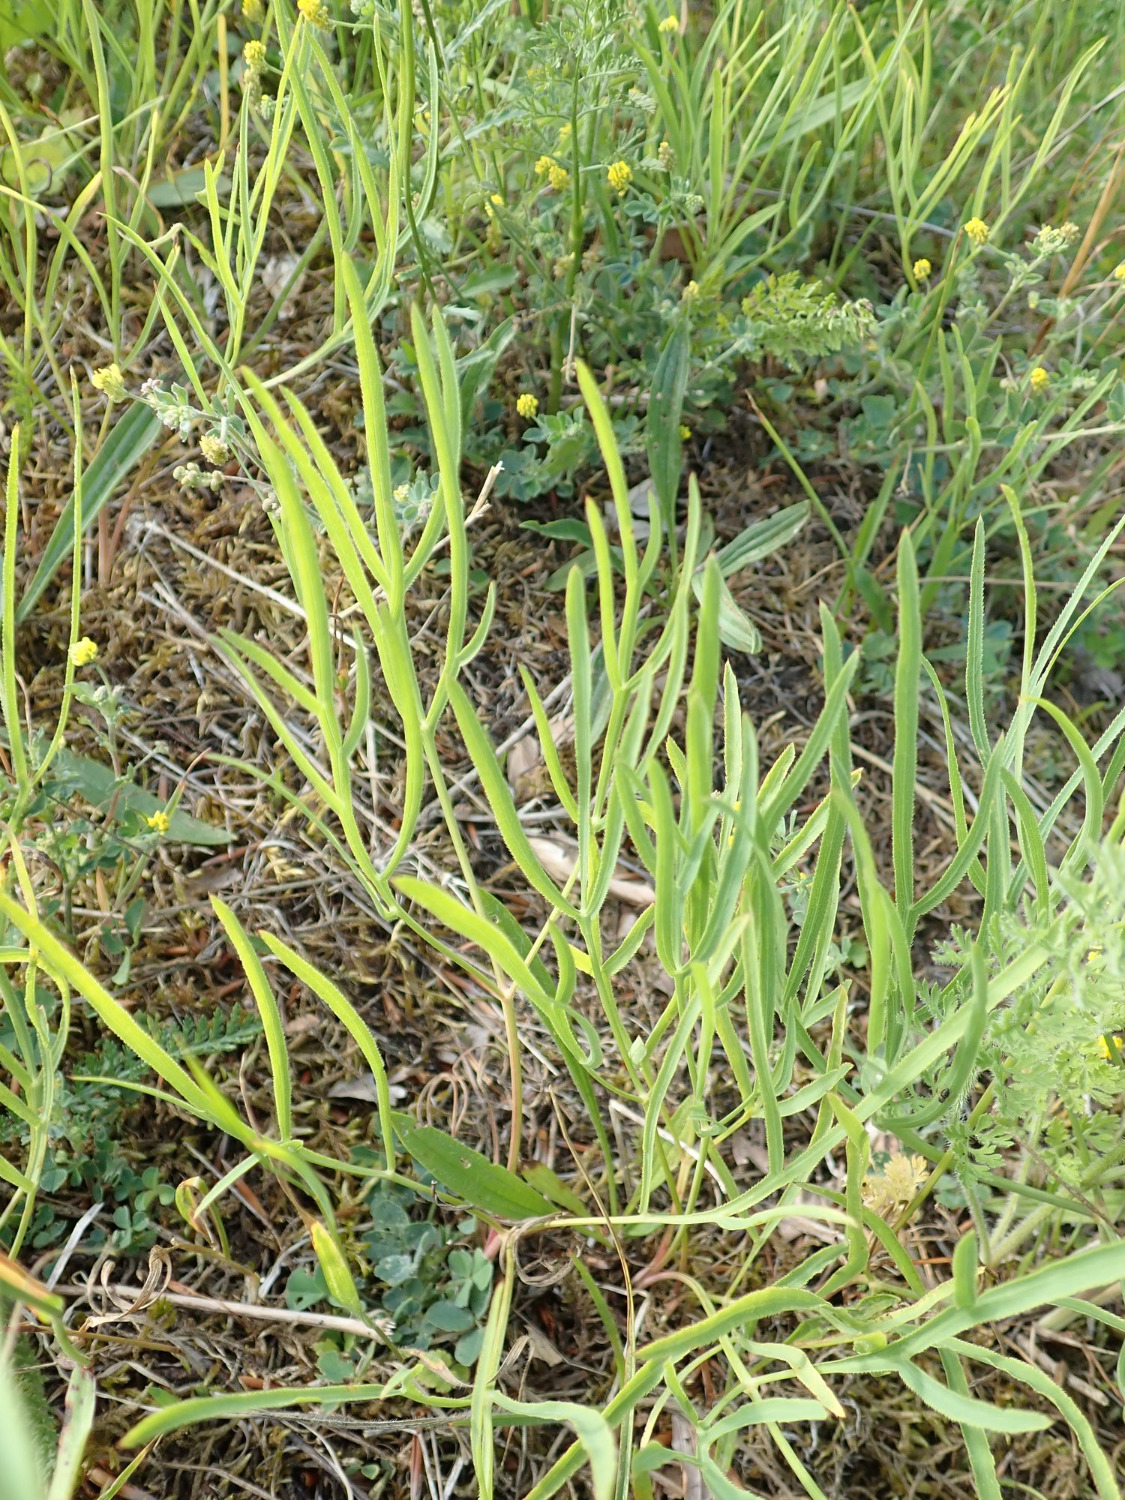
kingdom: Plantae
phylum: Tracheophyta
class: Magnoliopsida
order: Apiales
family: Apiaceae
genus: Falcaria
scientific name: Falcaria vulgaris
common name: Seglblad
